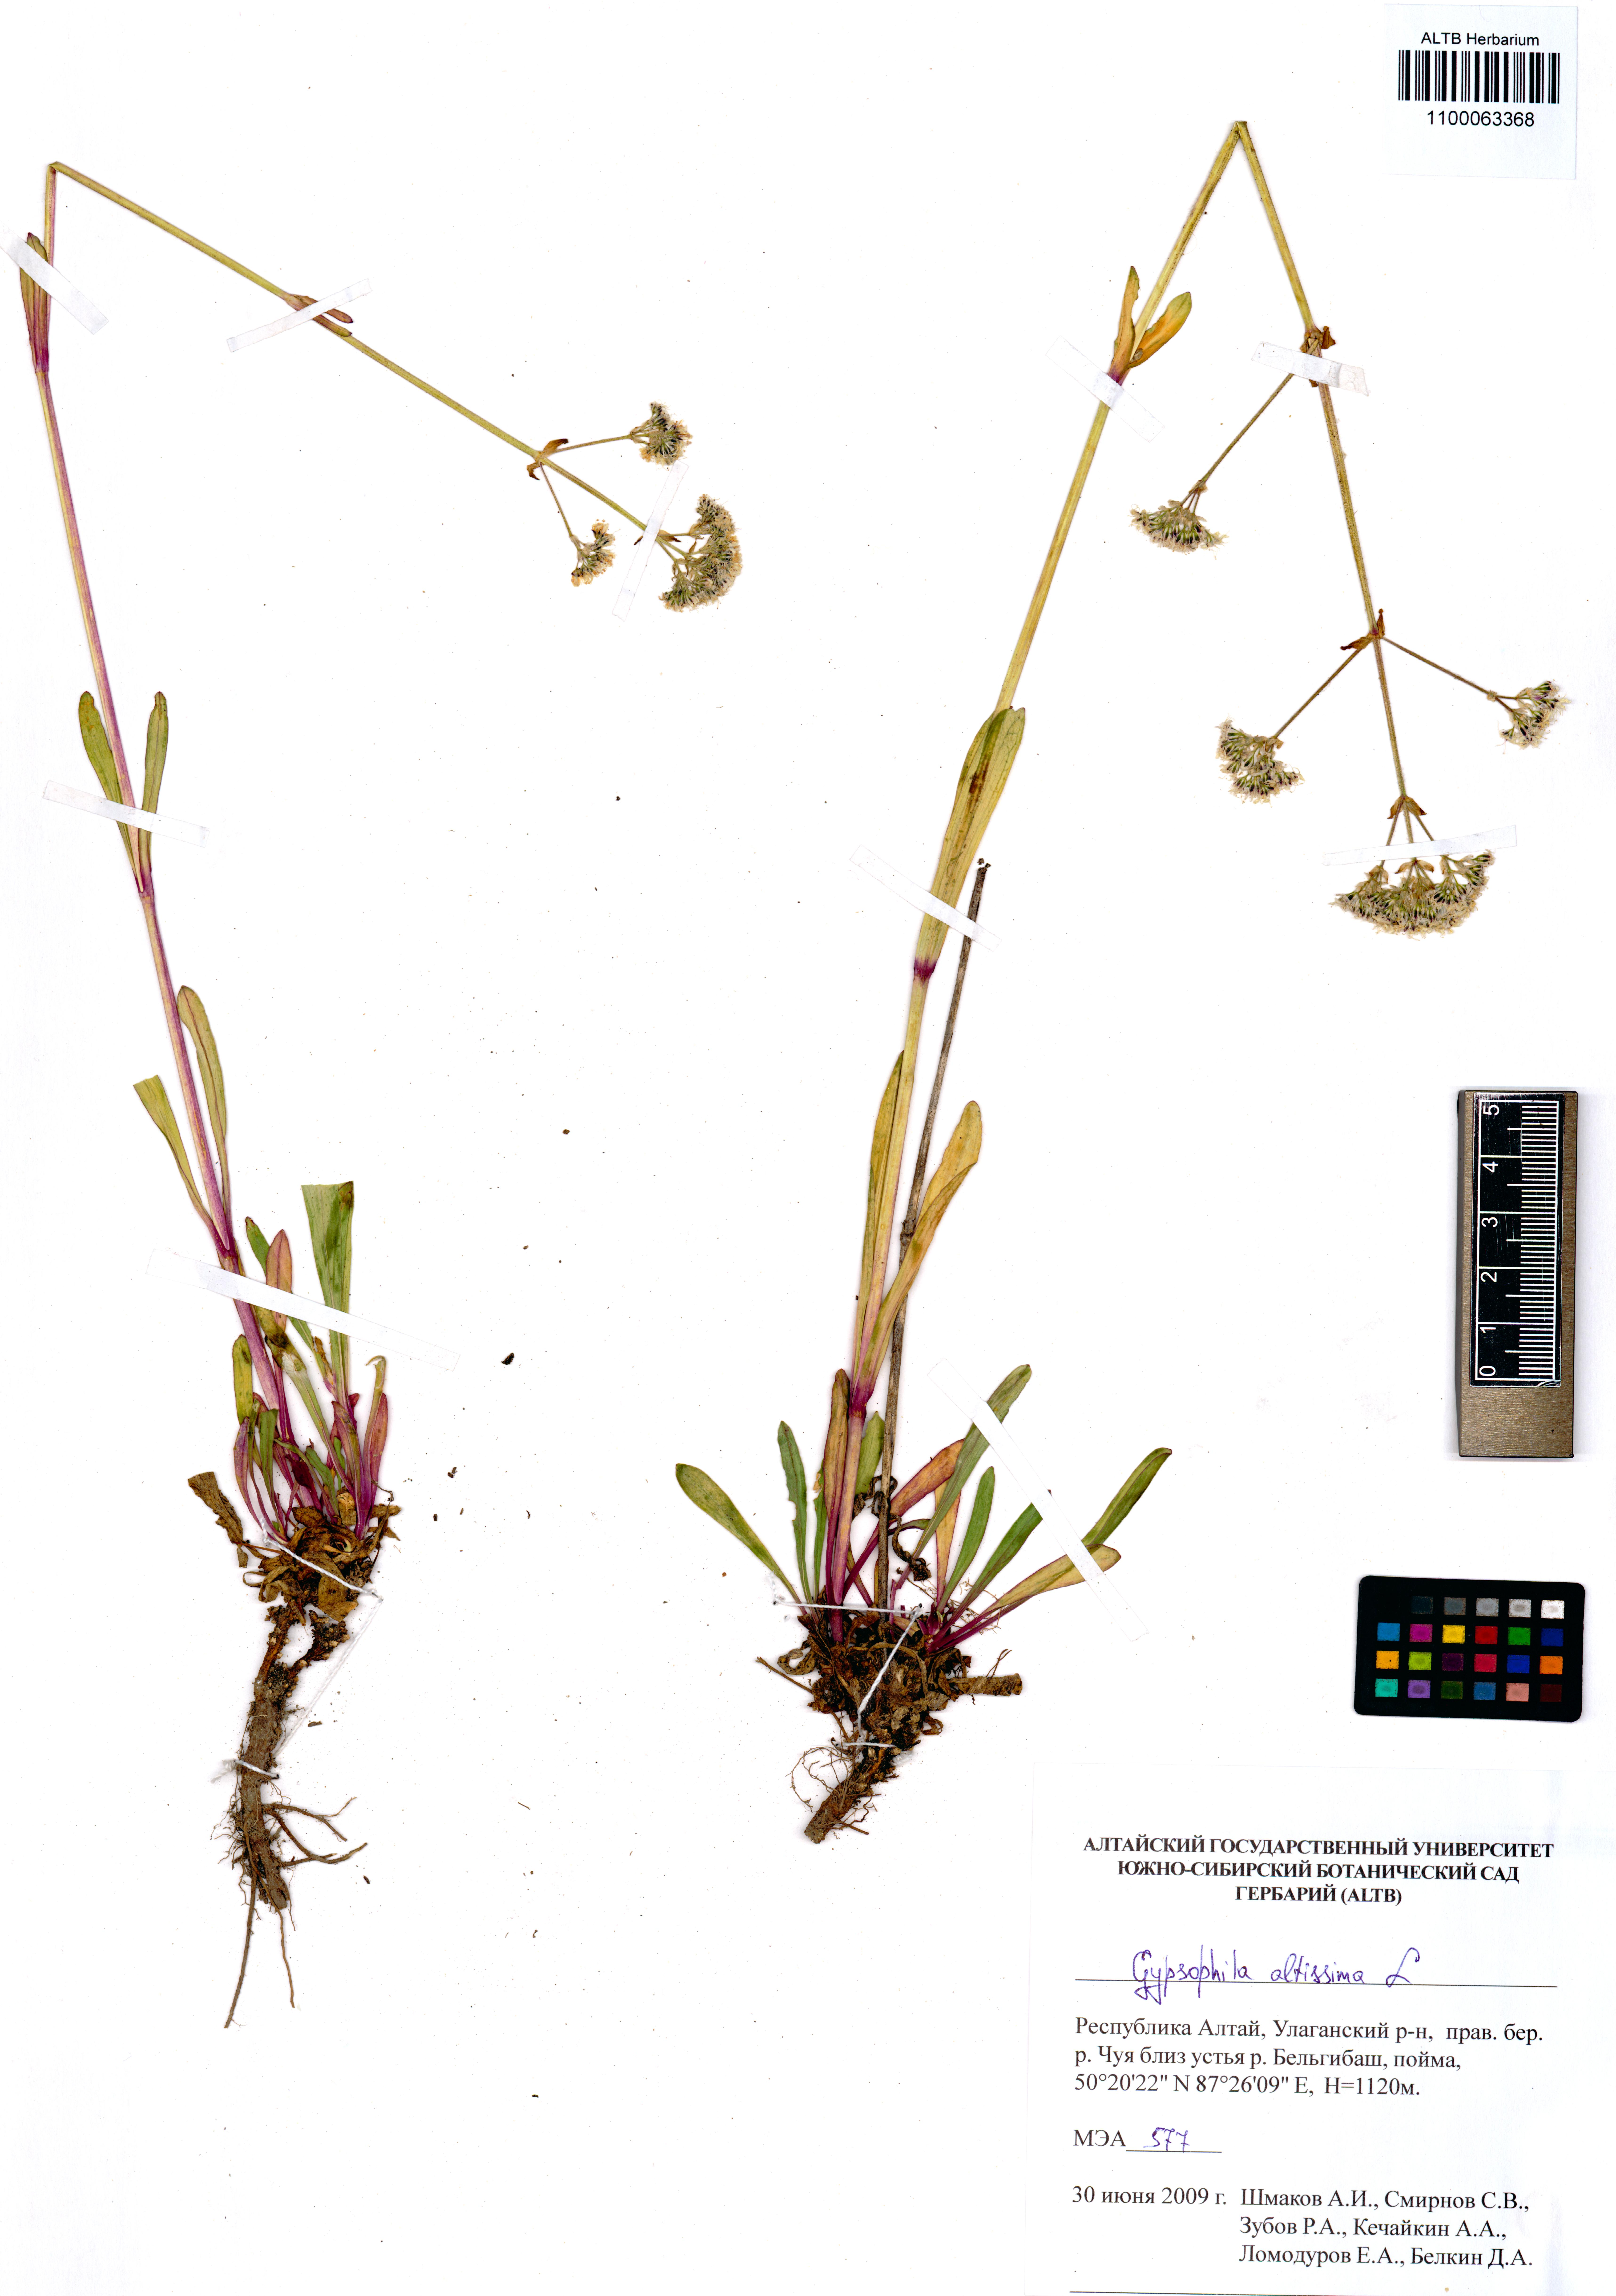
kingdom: Plantae
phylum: Tracheophyta
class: Magnoliopsida
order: Caryophyllales
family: Caryophyllaceae
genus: Gypsophila
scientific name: Gypsophila altissima
